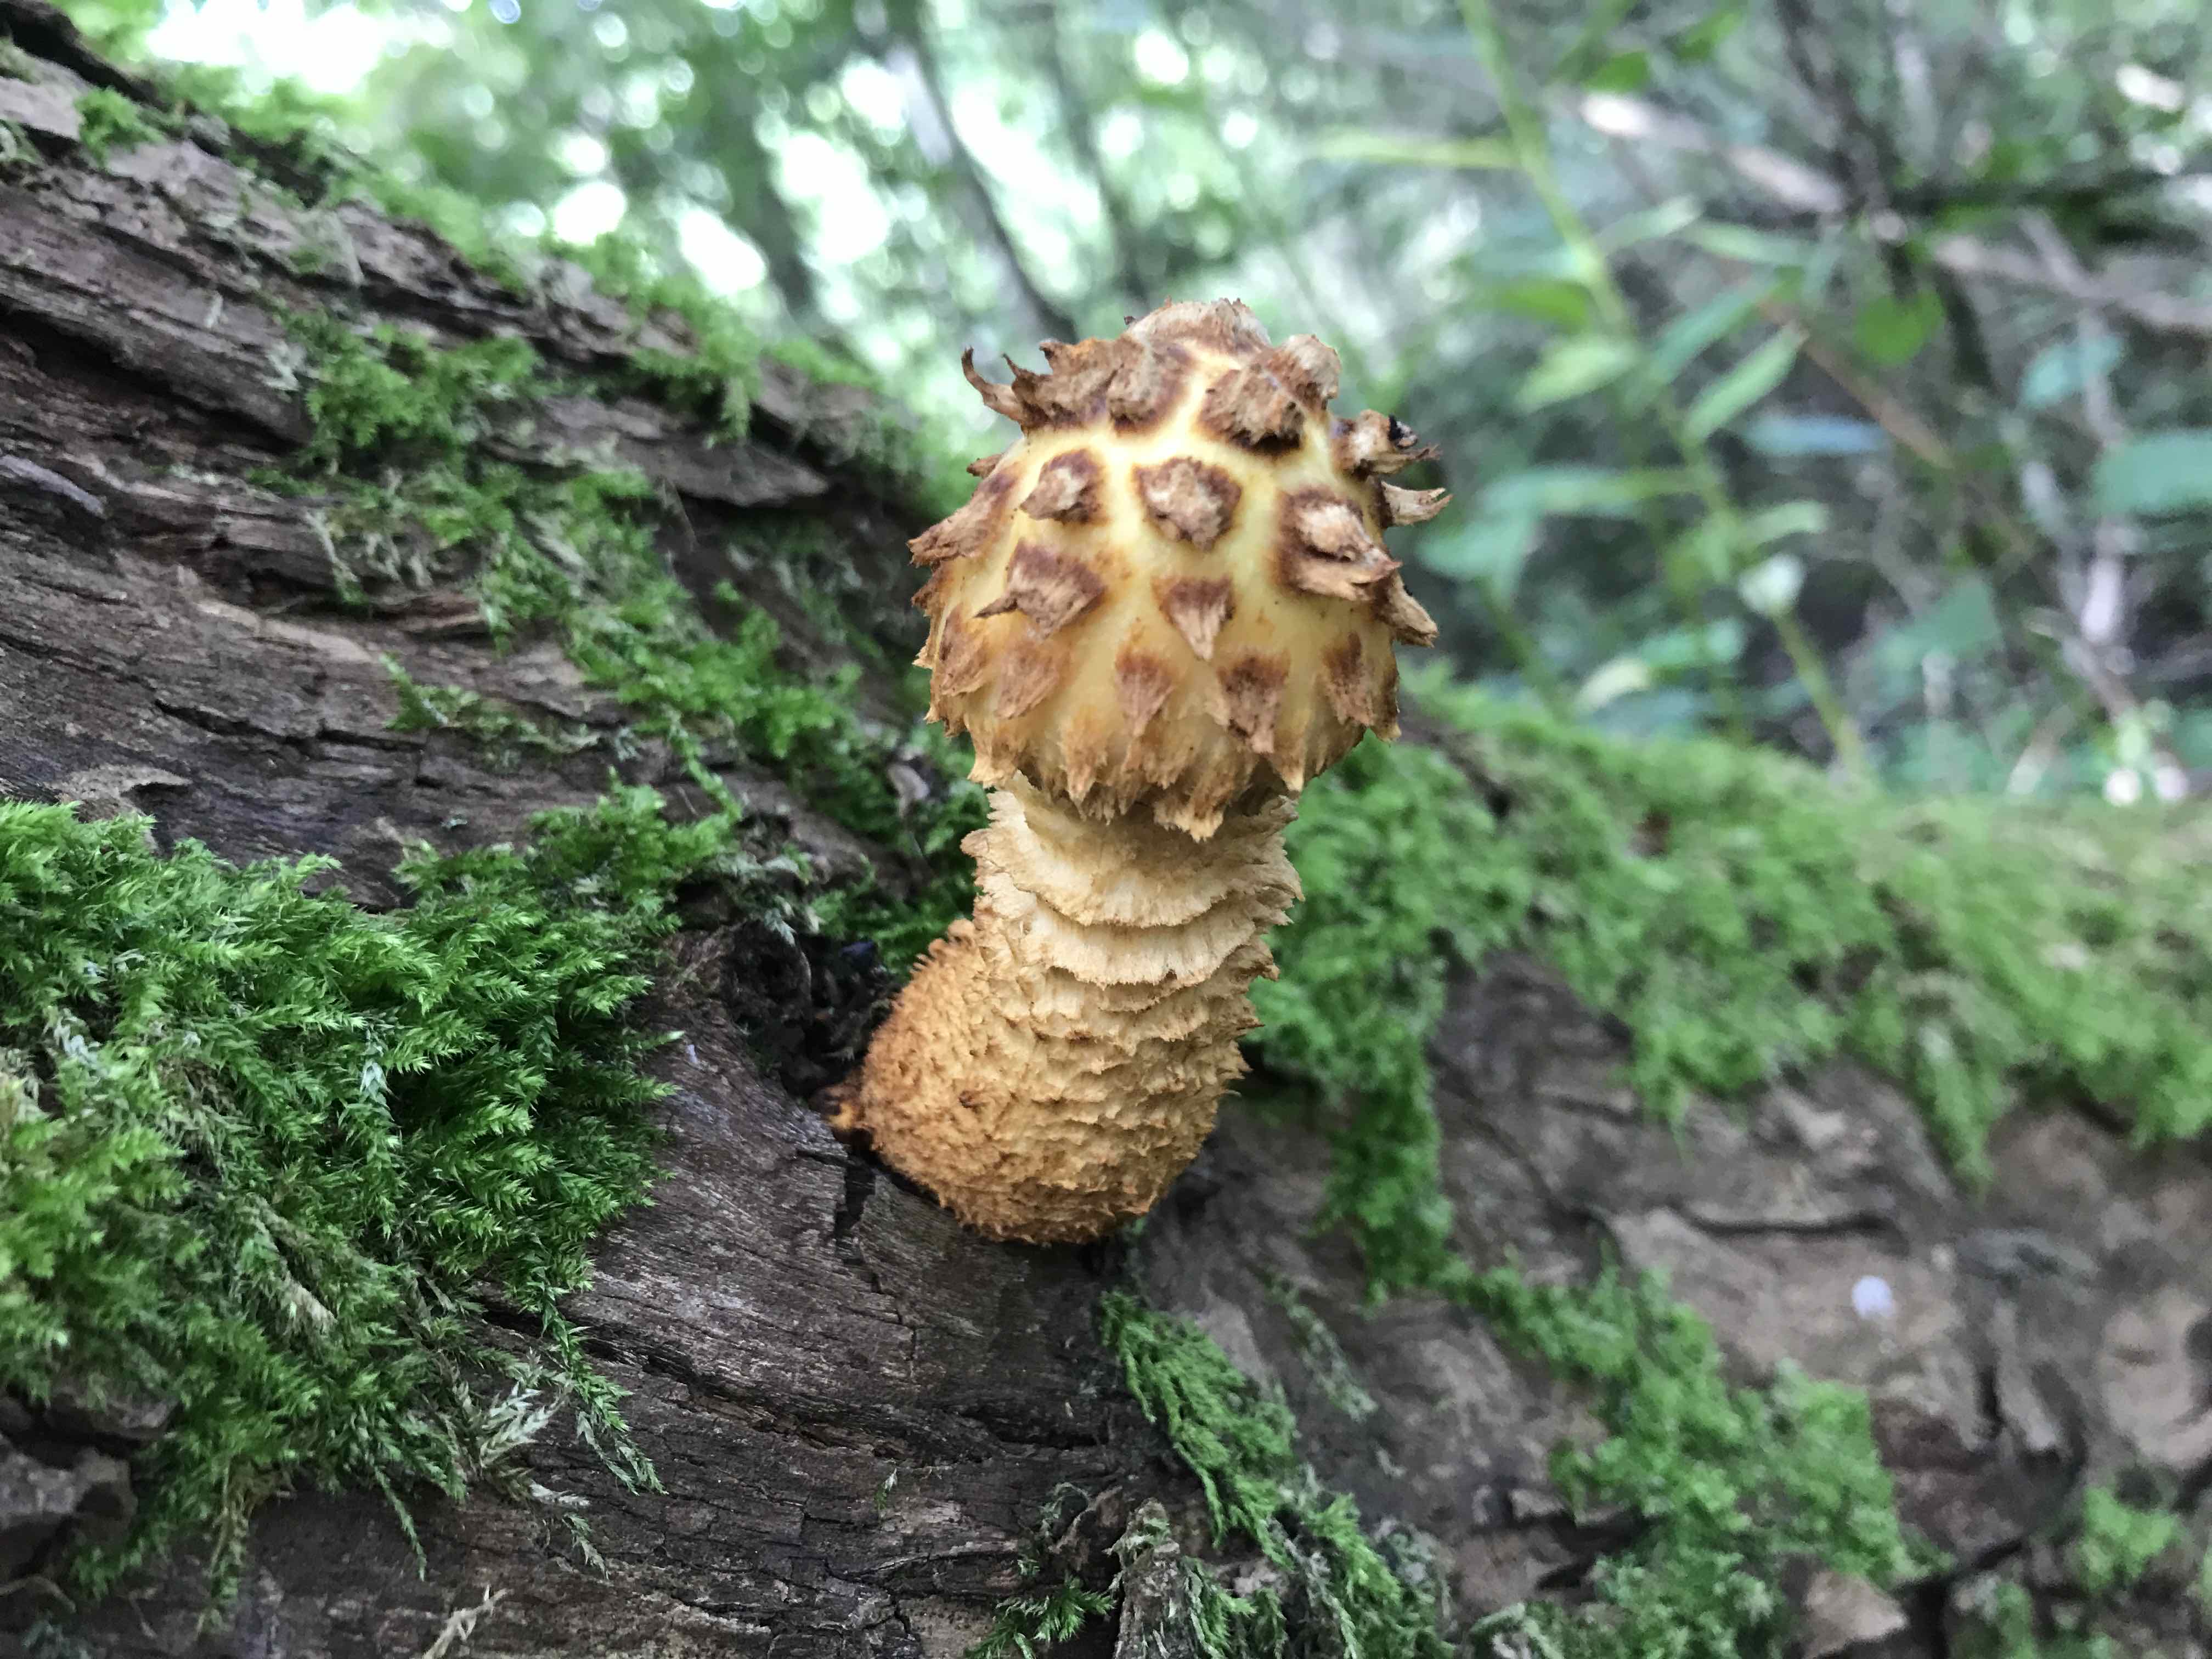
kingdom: Fungi
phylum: Basidiomycota
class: Agaricomycetes
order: Agaricales
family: Strophariaceae
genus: Pholiota
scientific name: Pholiota aurivella
